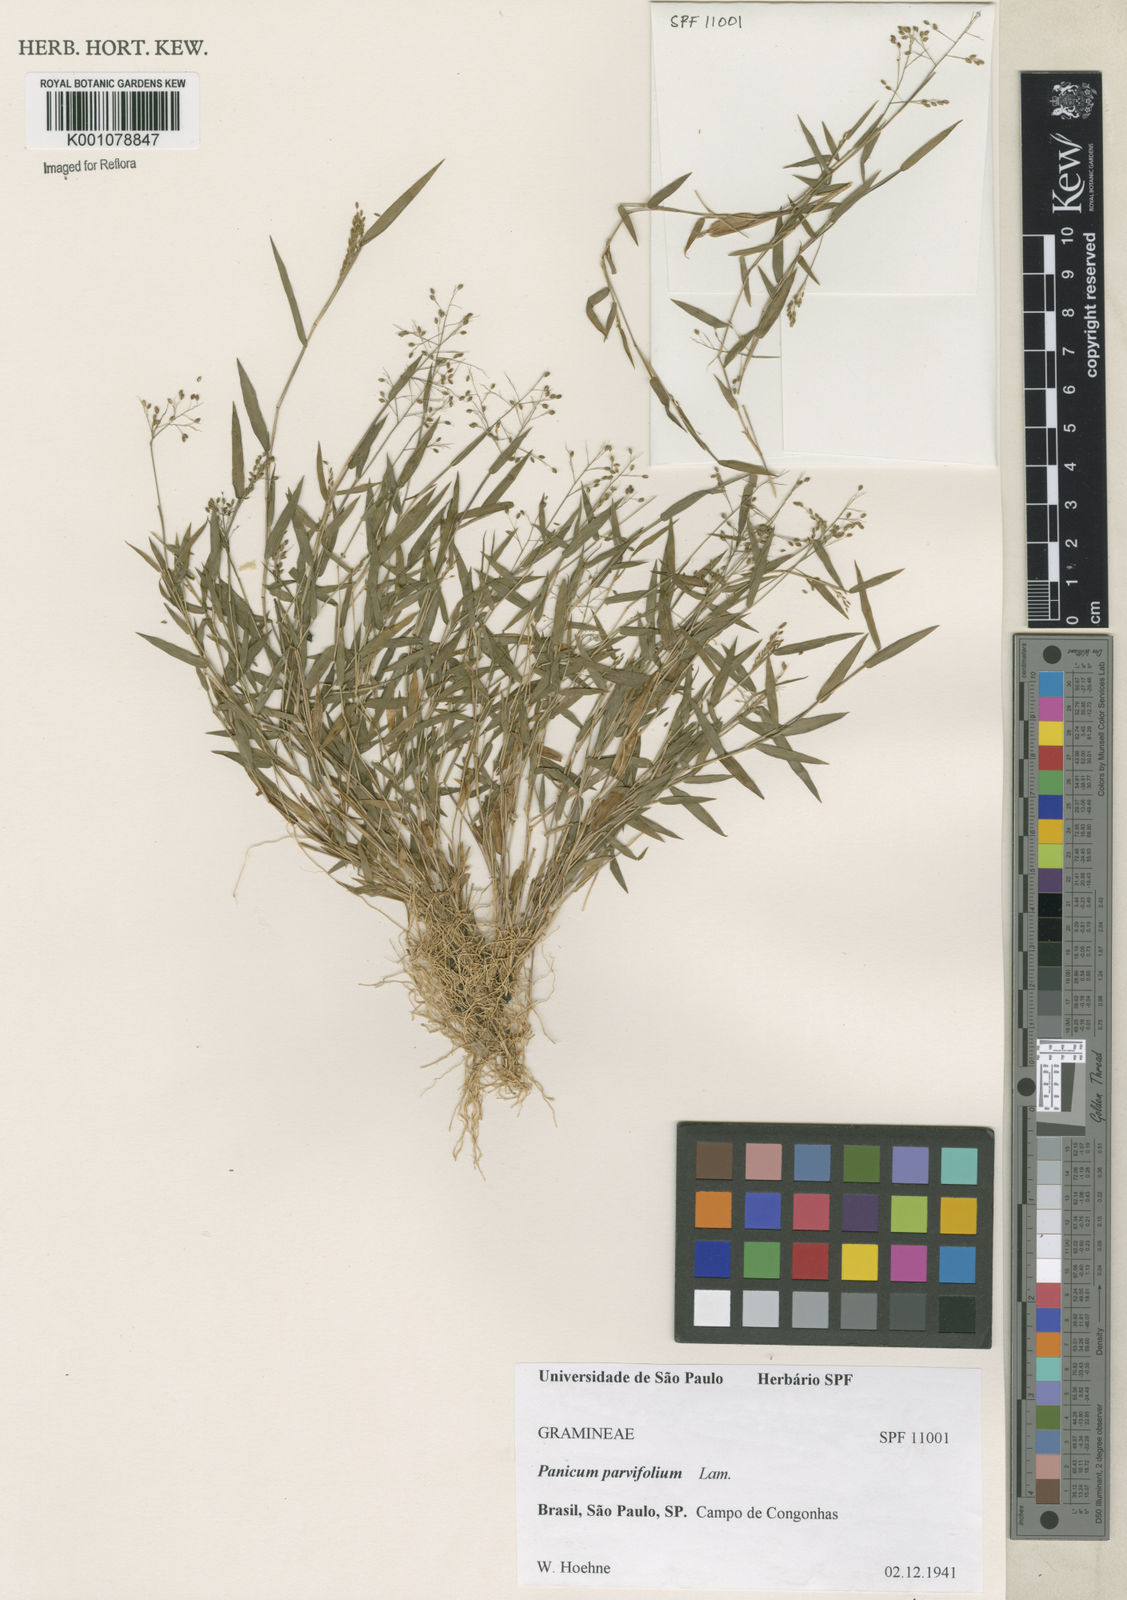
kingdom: Plantae
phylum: Tracheophyta
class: Liliopsida
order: Poales
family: Poaceae
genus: Trichanthecium
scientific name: Trichanthecium parvifolium
